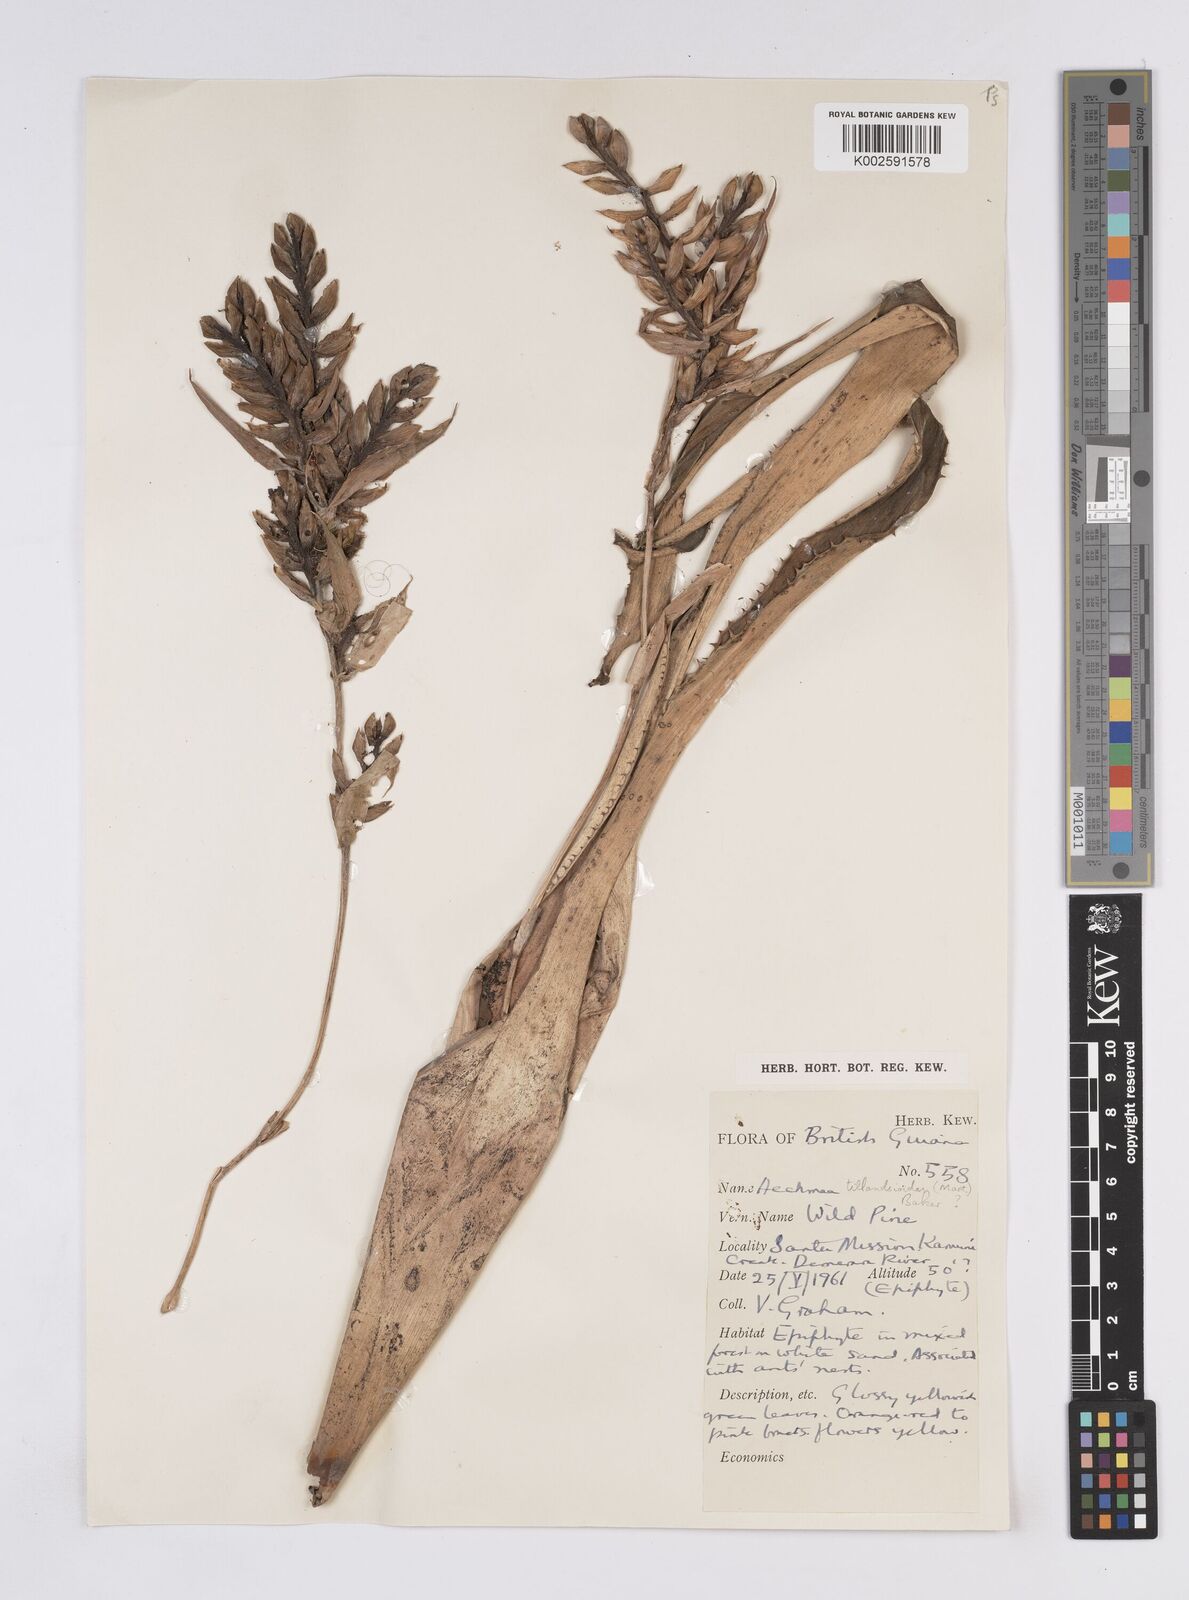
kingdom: Plantae
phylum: Tracheophyta
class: Liliopsida
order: Poales
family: Bromeliaceae
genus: Aechmea
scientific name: Aechmea tillandsioides
